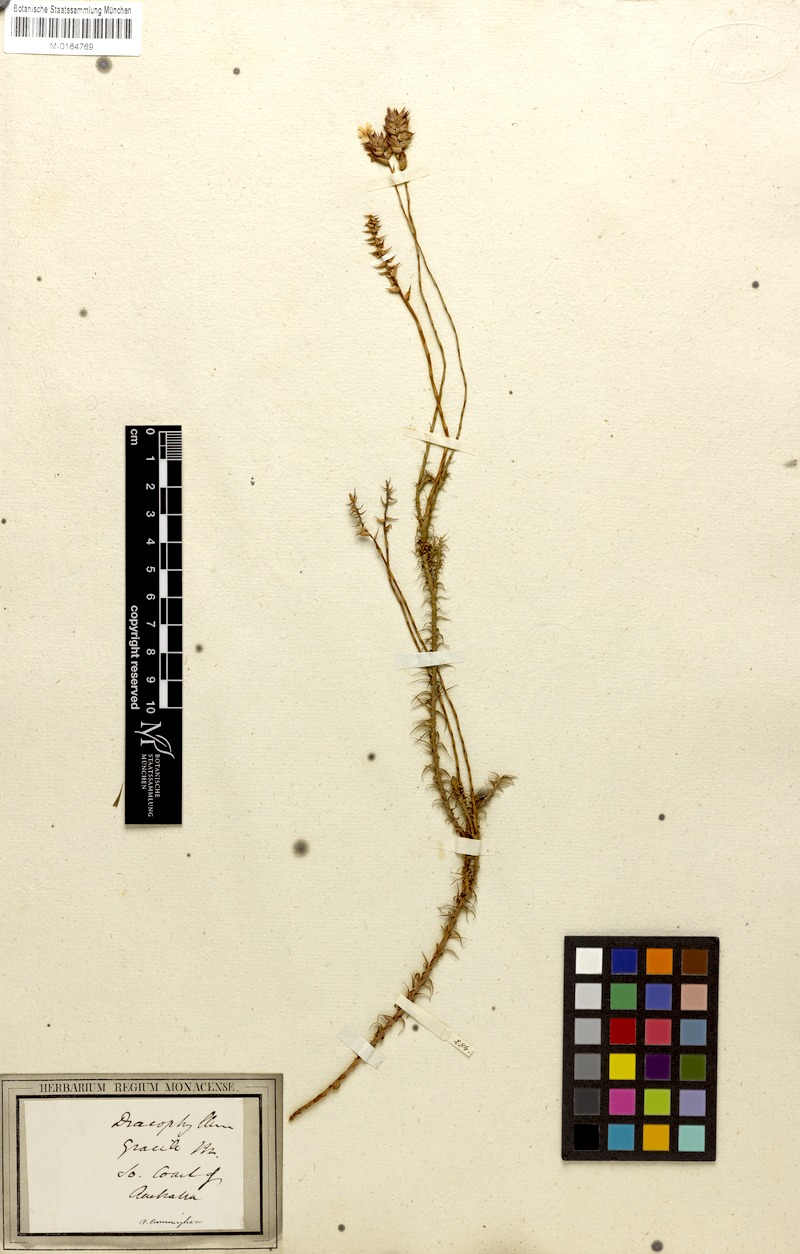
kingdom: Plantae
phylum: Tracheophyta
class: Magnoliopsida
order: Ericales
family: Ericaceae
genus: Dracophyllum
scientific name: Dracophyllum cosmelioides
